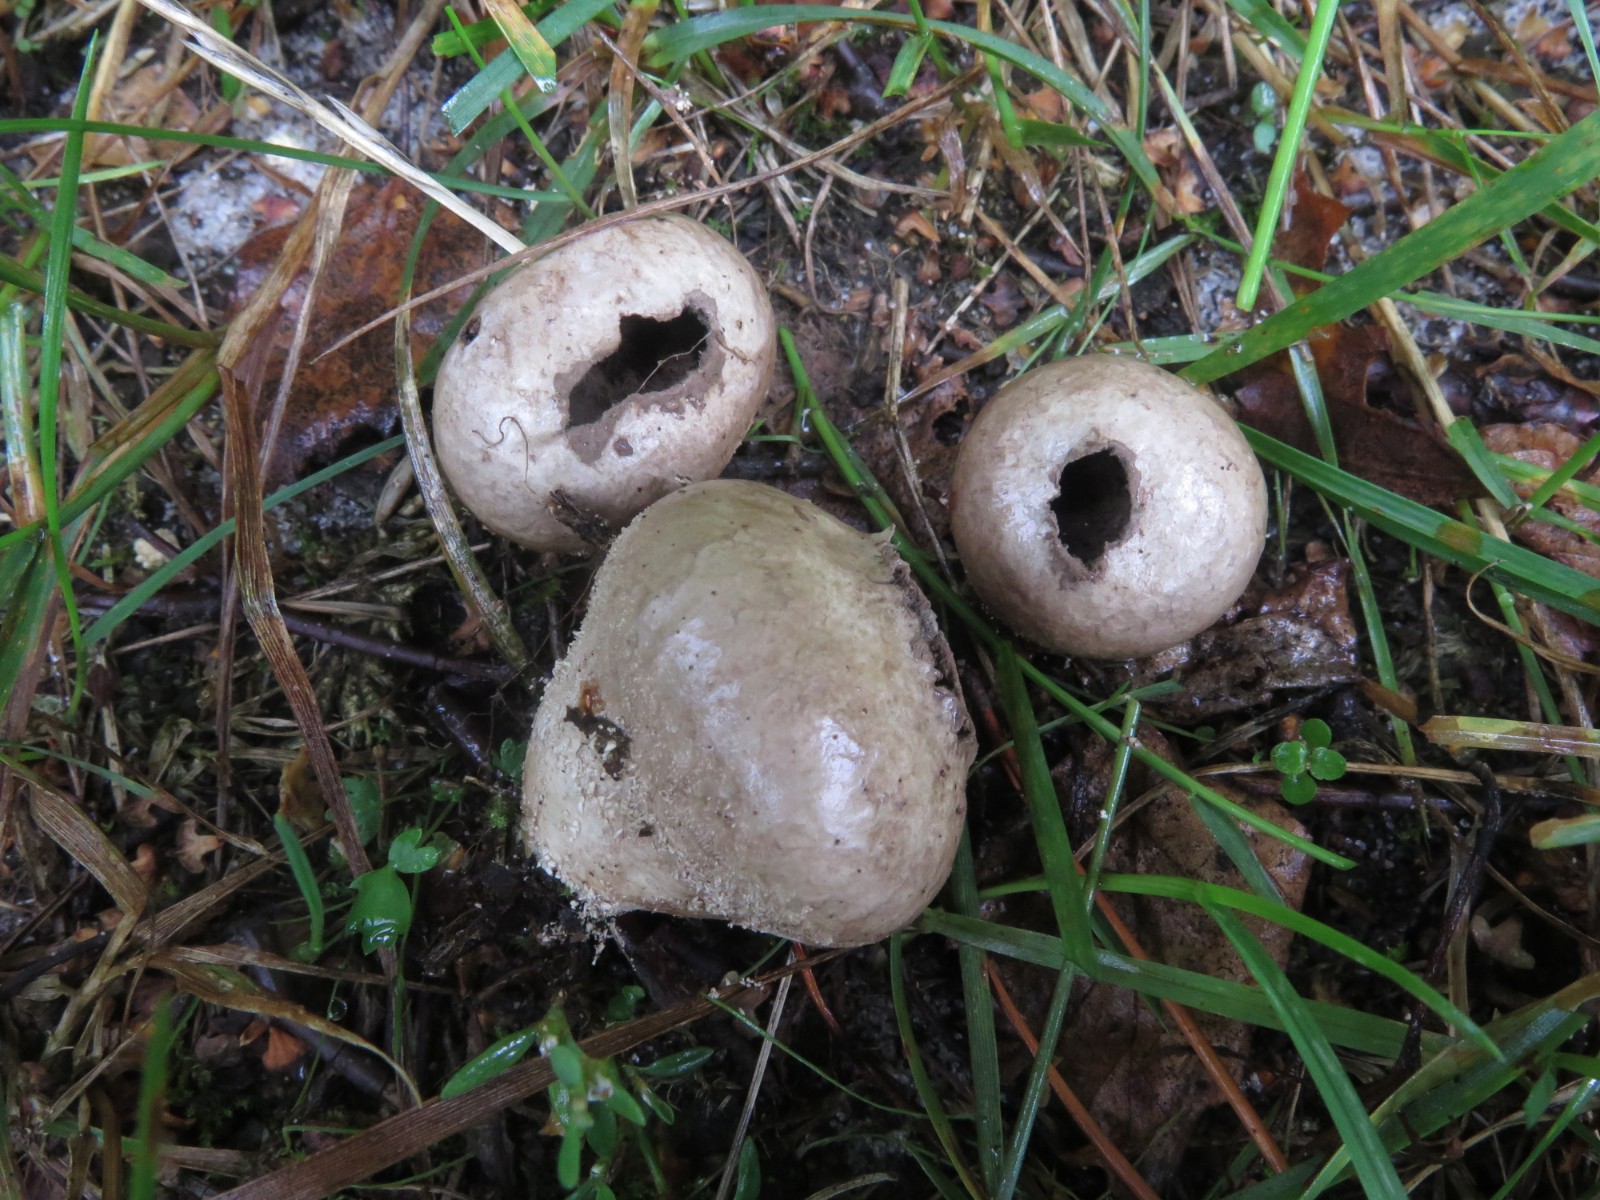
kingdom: Fungi
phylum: Basidiomycota
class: Agaricomycetes
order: Agaricales
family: Lycoperdaceae
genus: Lycoperdon
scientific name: Lycoperdon pratense
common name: flad støvbold
